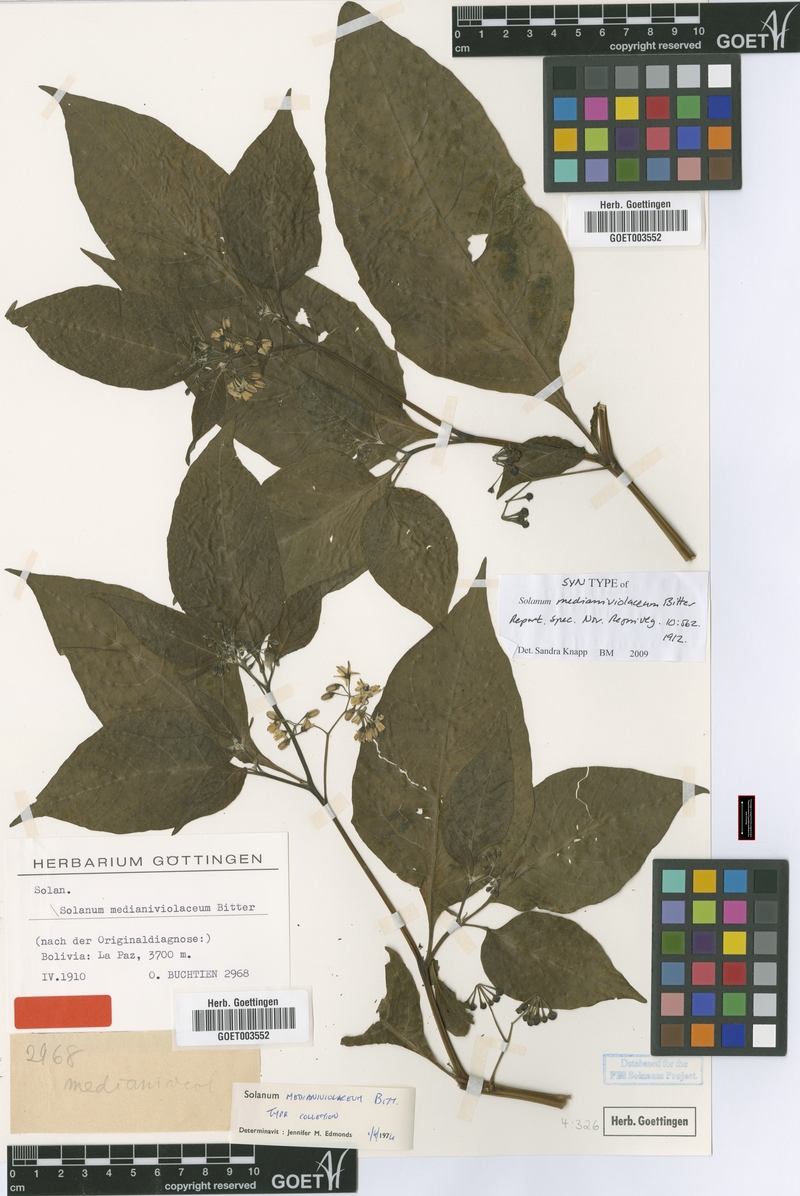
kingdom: Plantae
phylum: Tracheophyta
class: Magnoliopsida
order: Solanales
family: Solanaceae
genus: Solanum
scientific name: Solanum polytrichostylum
